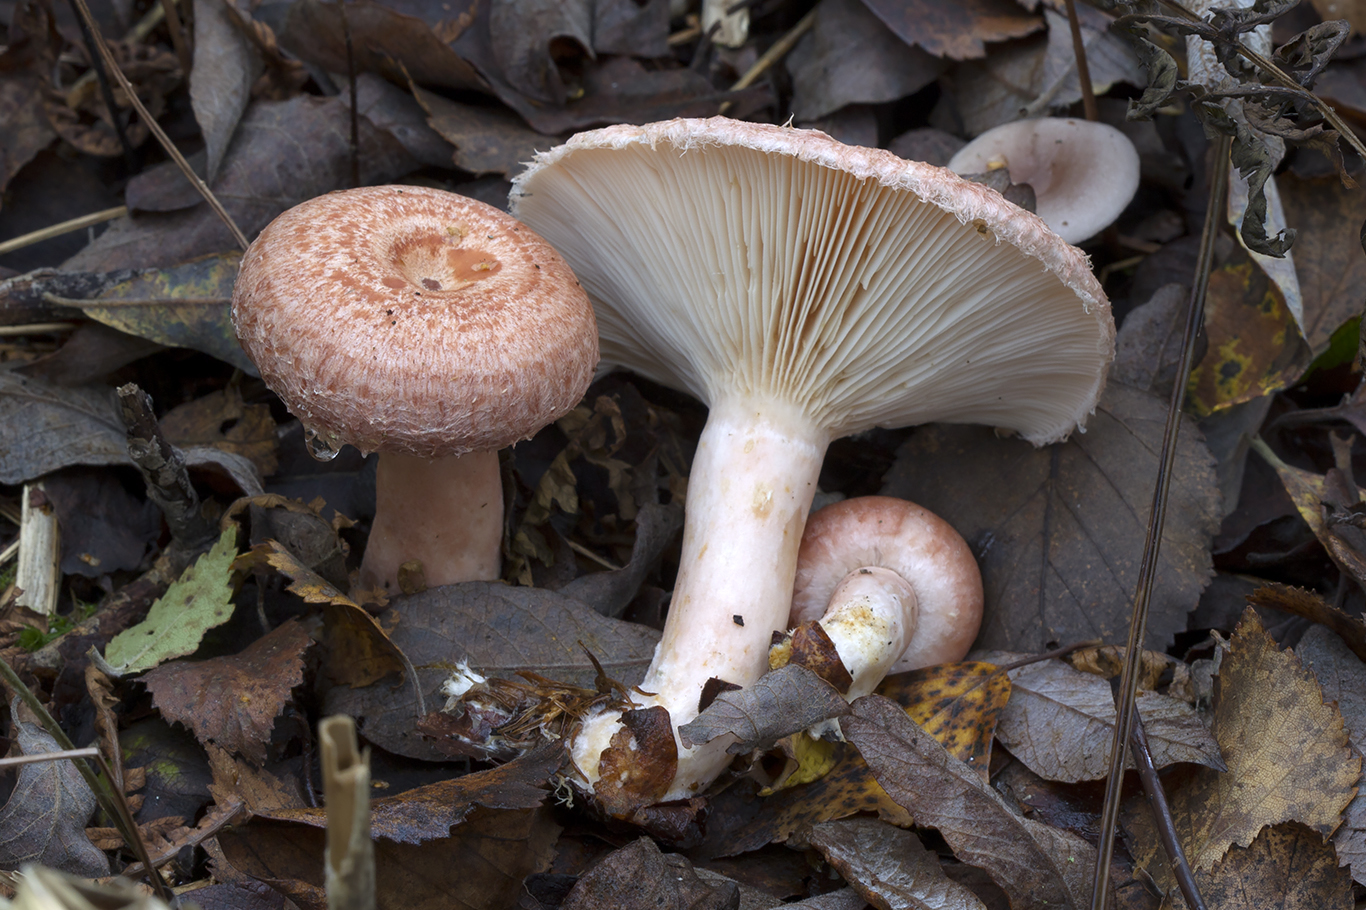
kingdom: Fungi
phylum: Basidiomycota
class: Agaricomycetes
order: Russulales
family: Russulaceae
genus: Lactarius
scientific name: Lactarius torminosus
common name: skægget mælkehat
